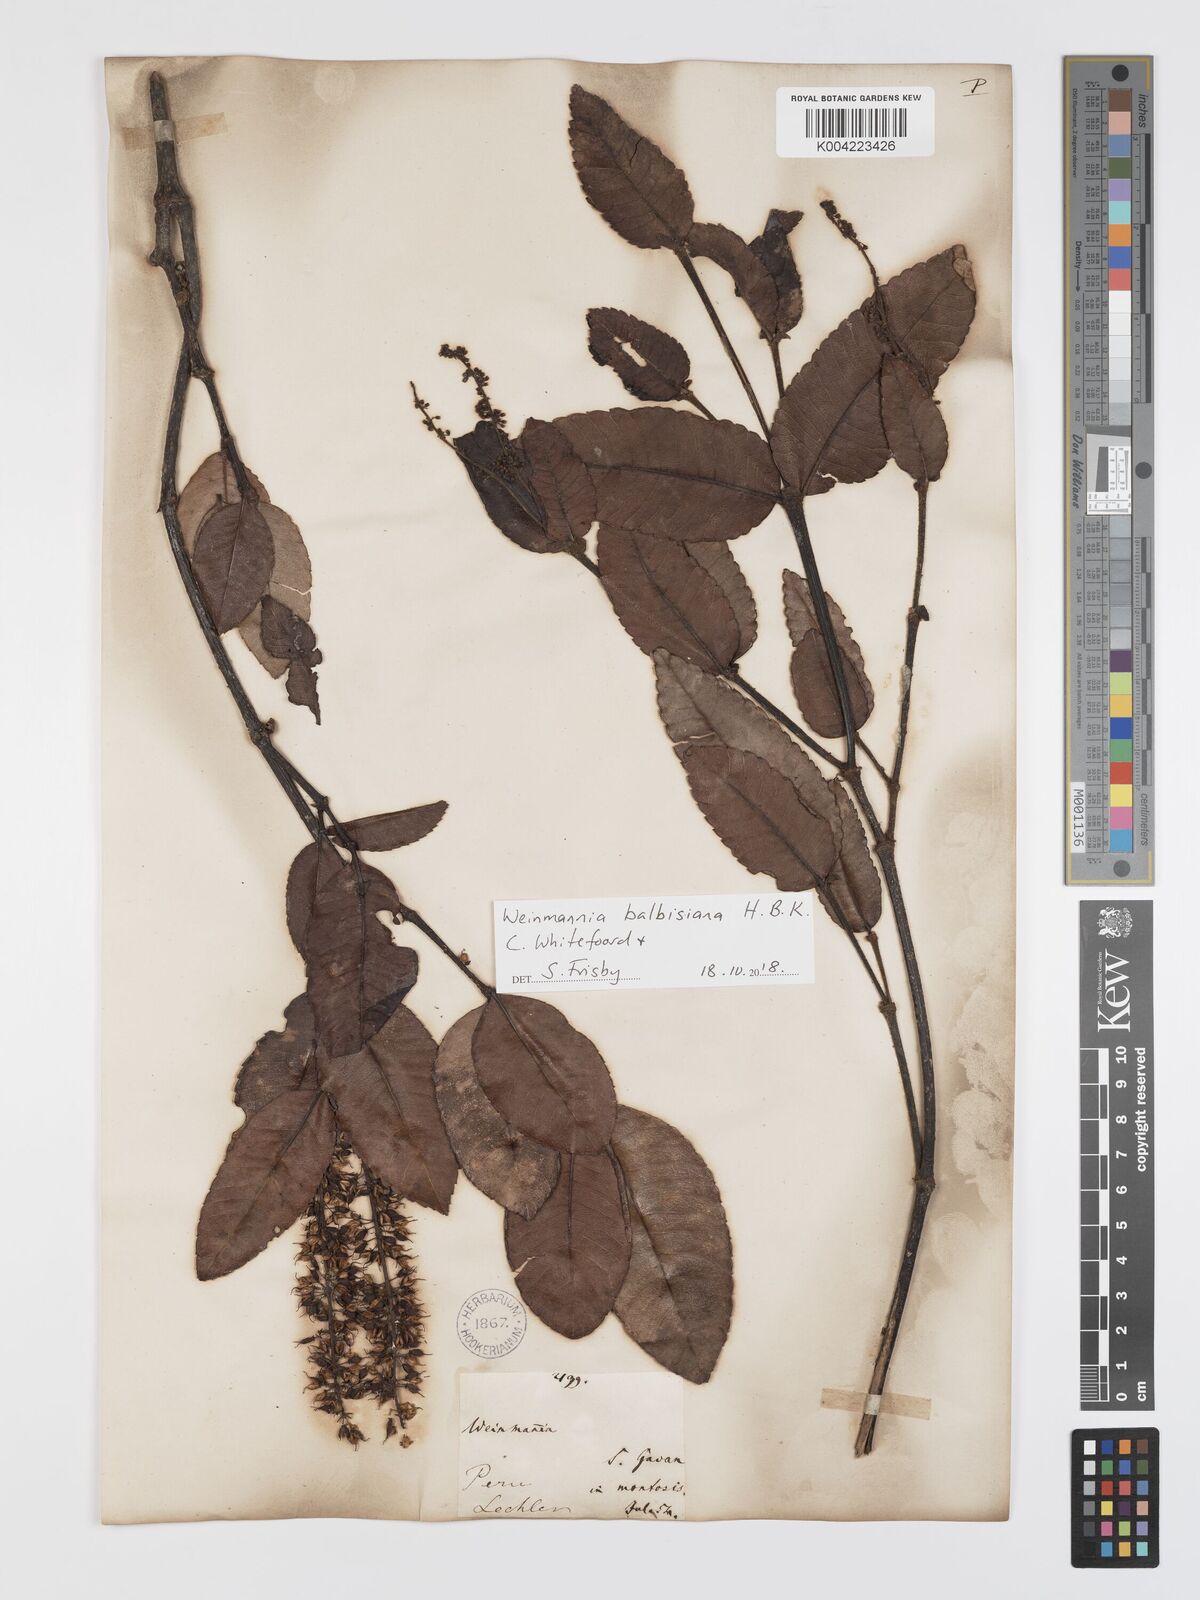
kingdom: Plantae
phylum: Tracheophyta
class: Magnoliopsida
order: Oxalidales
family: Cunoniaceae
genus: Weinmannia
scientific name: Weinmannia balbisana
